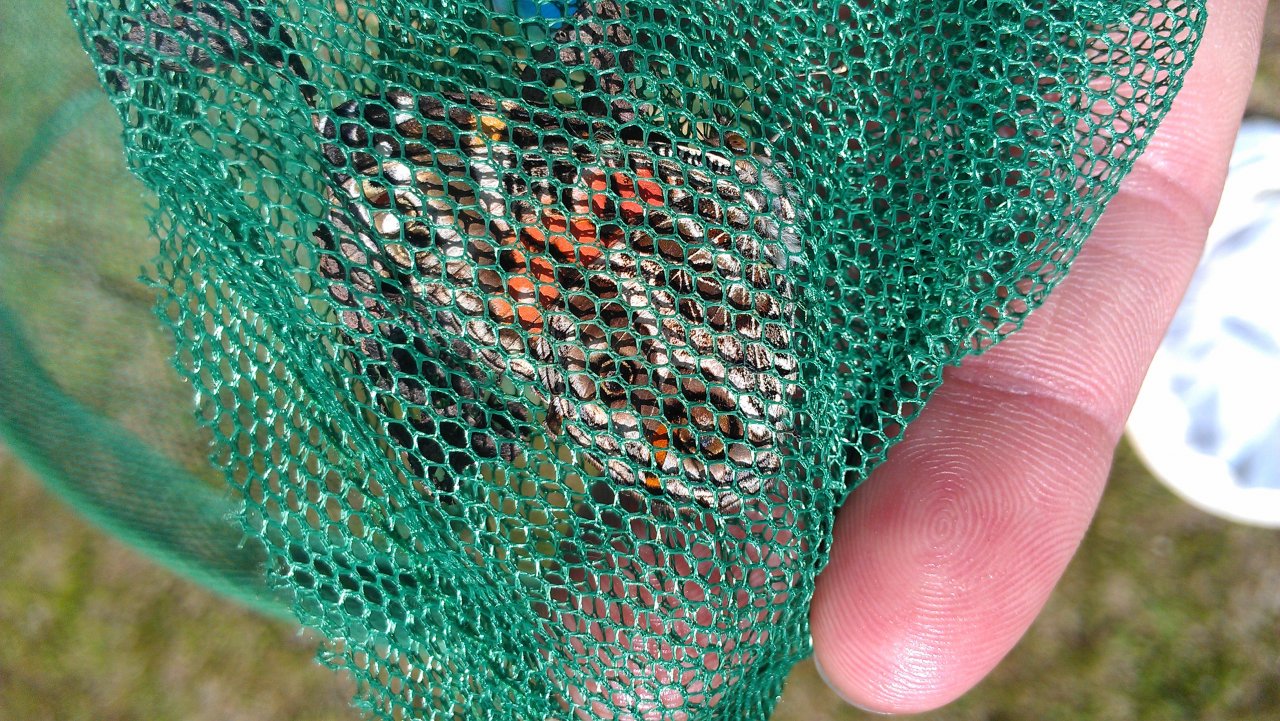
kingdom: Animalia
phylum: Arthropoda
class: Insecta
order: Lepidoptera
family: Nymphalidae
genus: Vanessa
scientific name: Vanessa virginiensis
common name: American Lady
